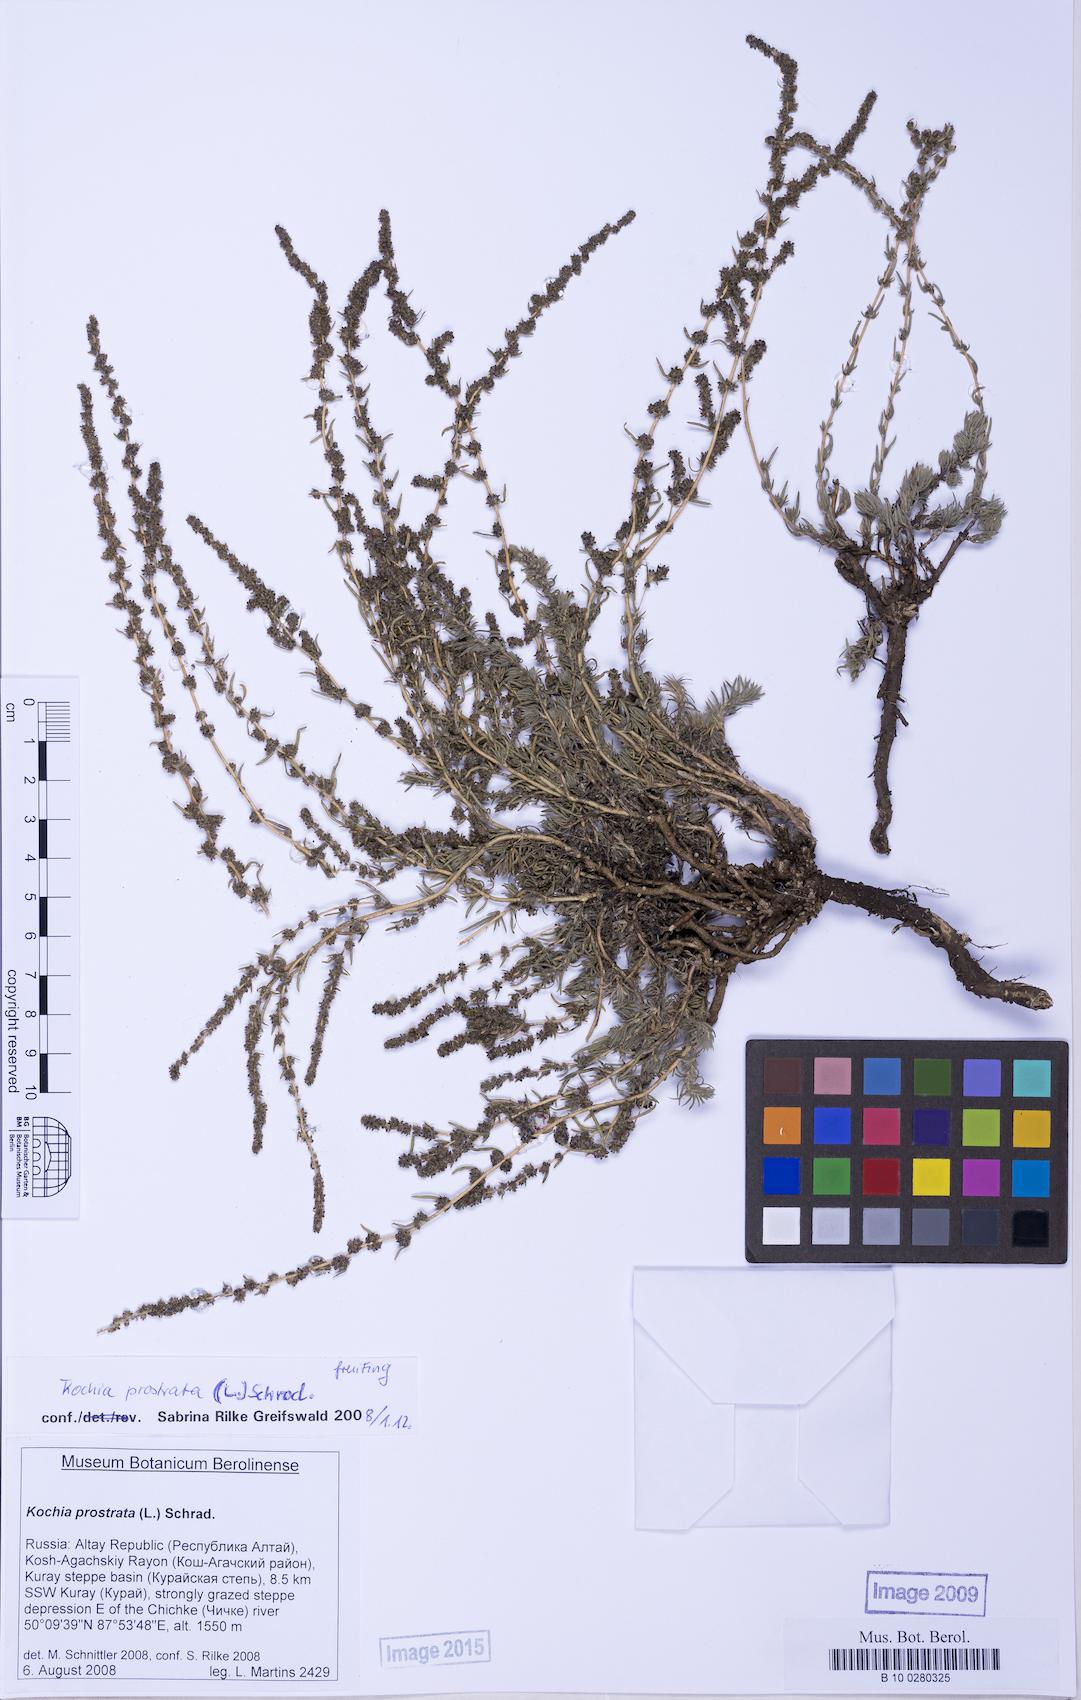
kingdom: Plantae
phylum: Tracheophyta
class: Magnoliopsida
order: Caryophyllales
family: Amaranthaceae
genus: Bassia
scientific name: Bassia prostrata
